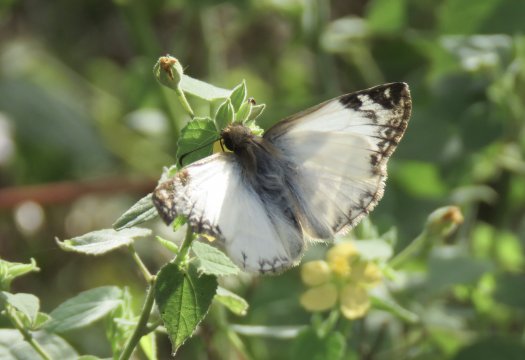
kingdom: Animalia
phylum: Arthropoda
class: Insecta
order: Lepidoptera
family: Hesperiidae
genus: Heliopetes
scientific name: Heliopetes laviana
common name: Laviana White-Skipper
